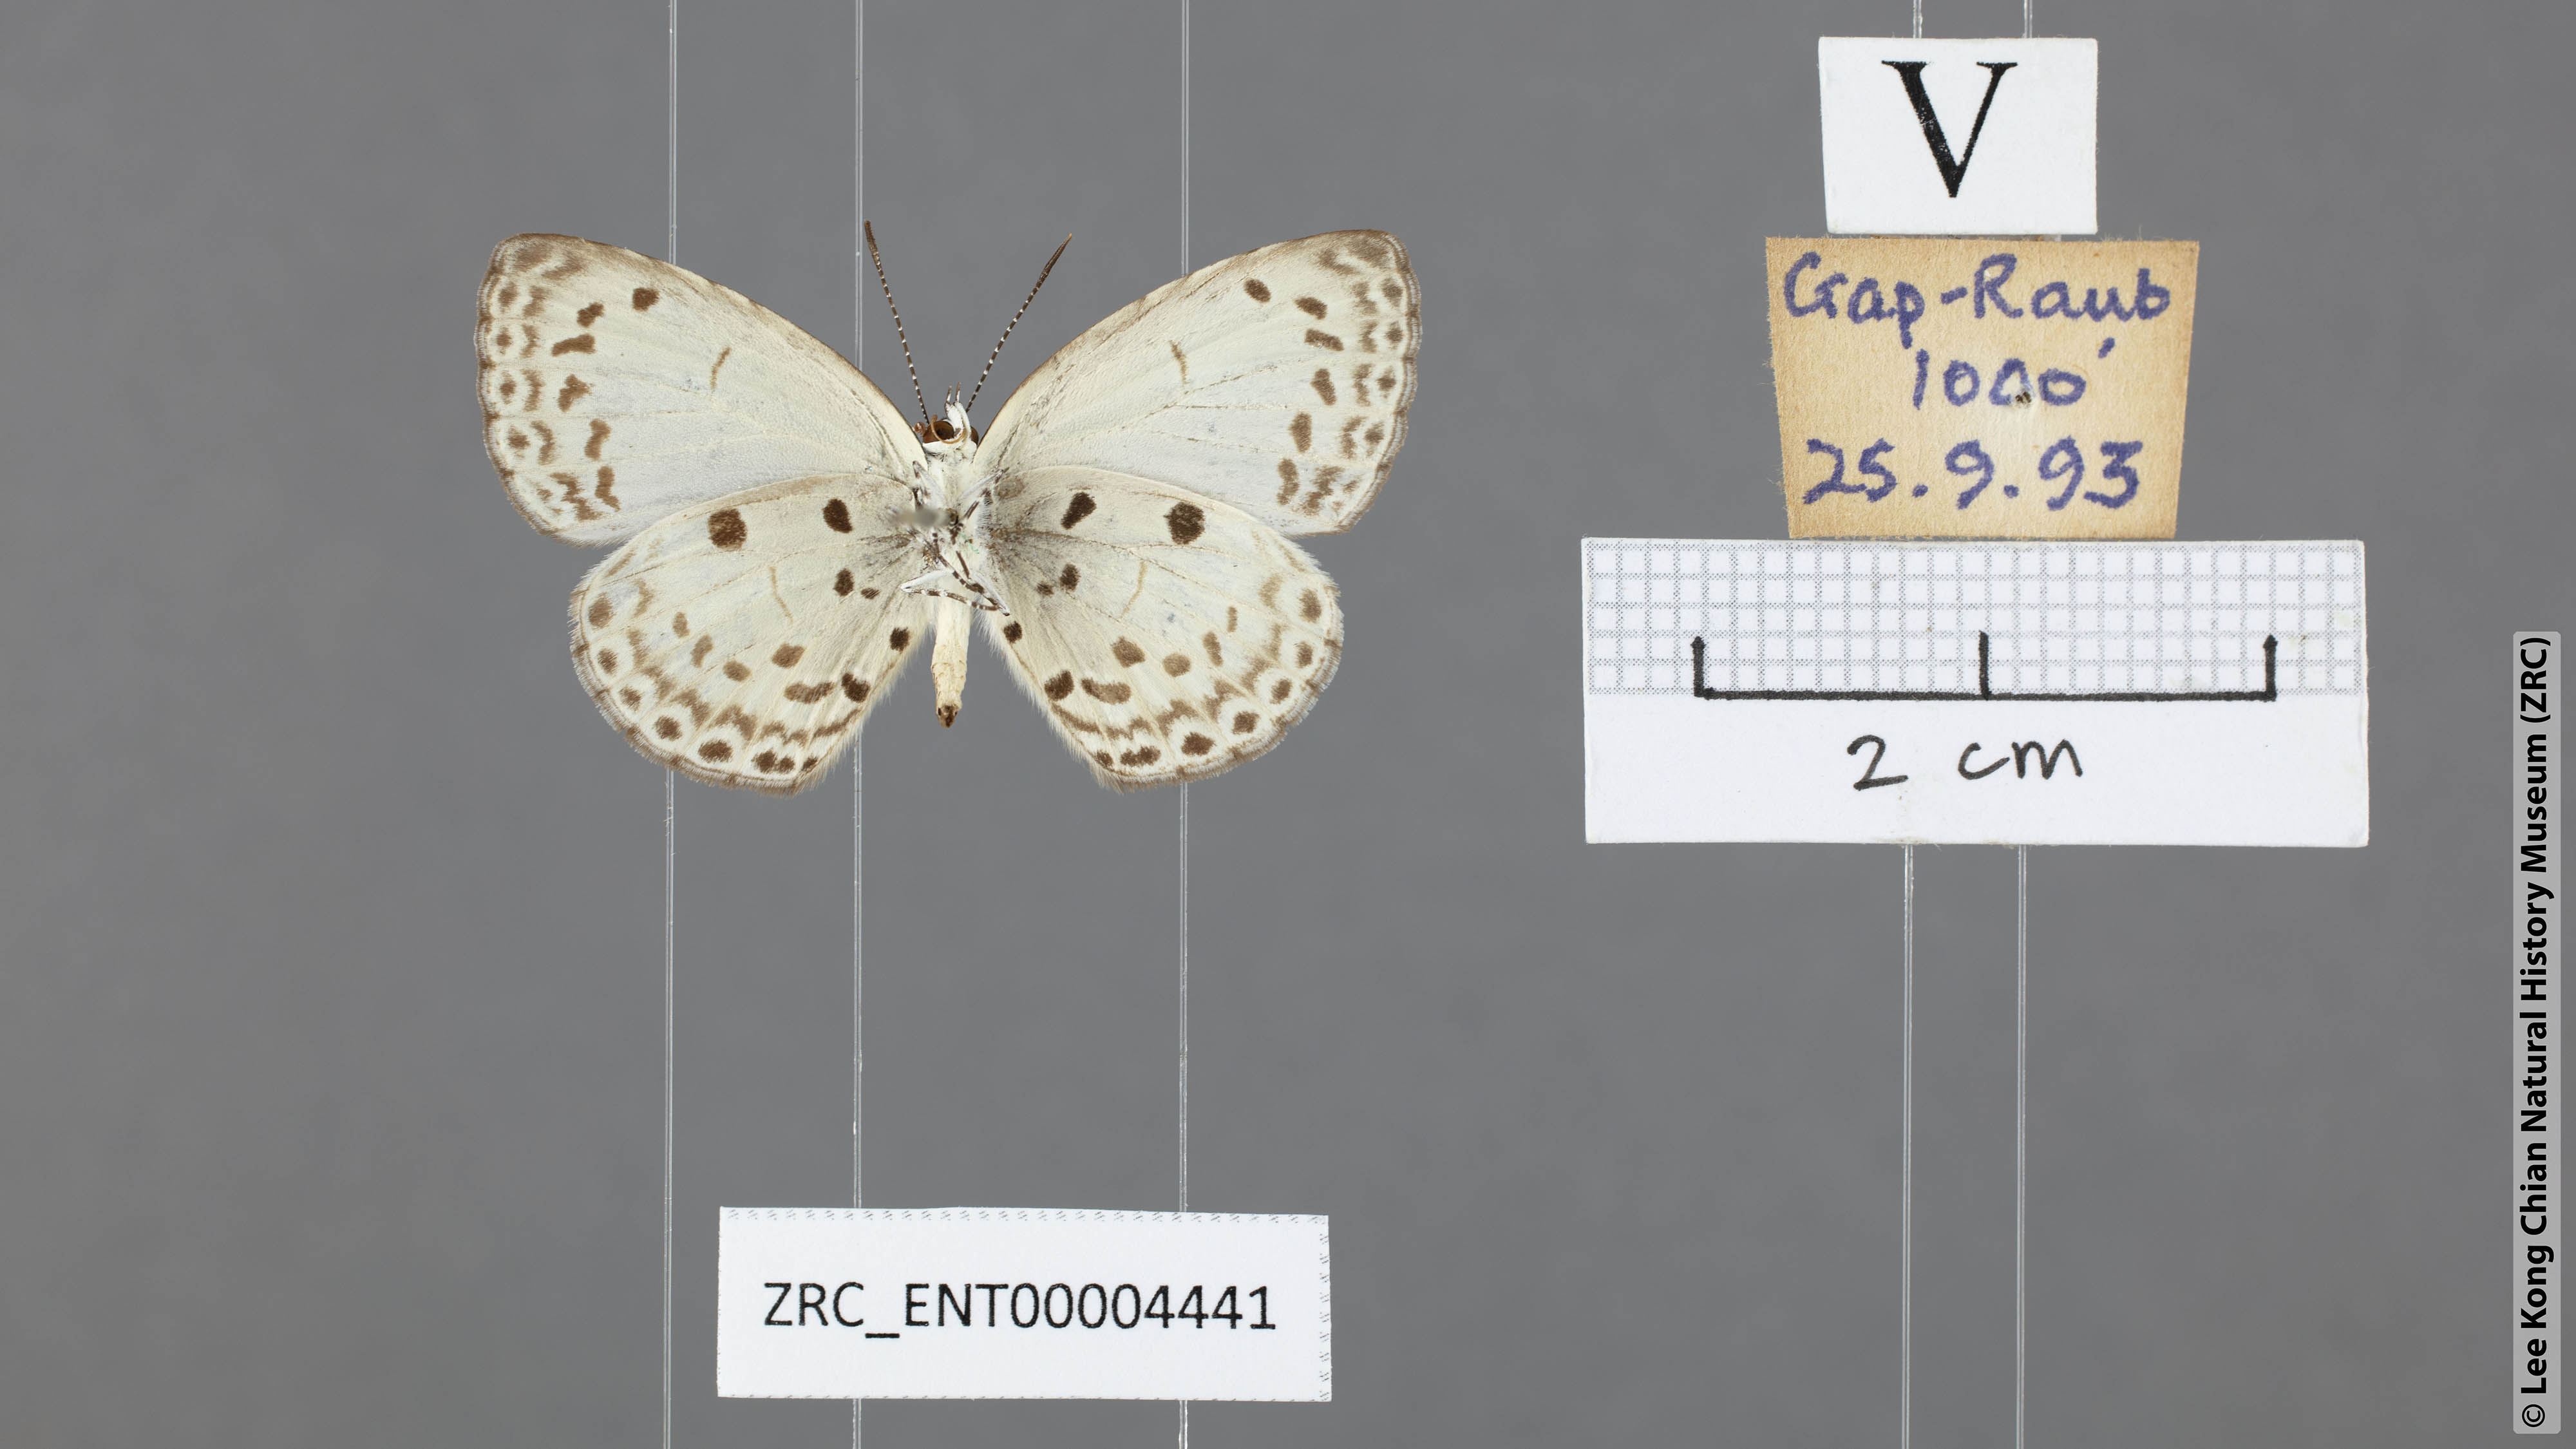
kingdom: Animalia
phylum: Arthropoda
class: Insecta
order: Lepidoptera
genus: Plautella
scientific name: Plautella
